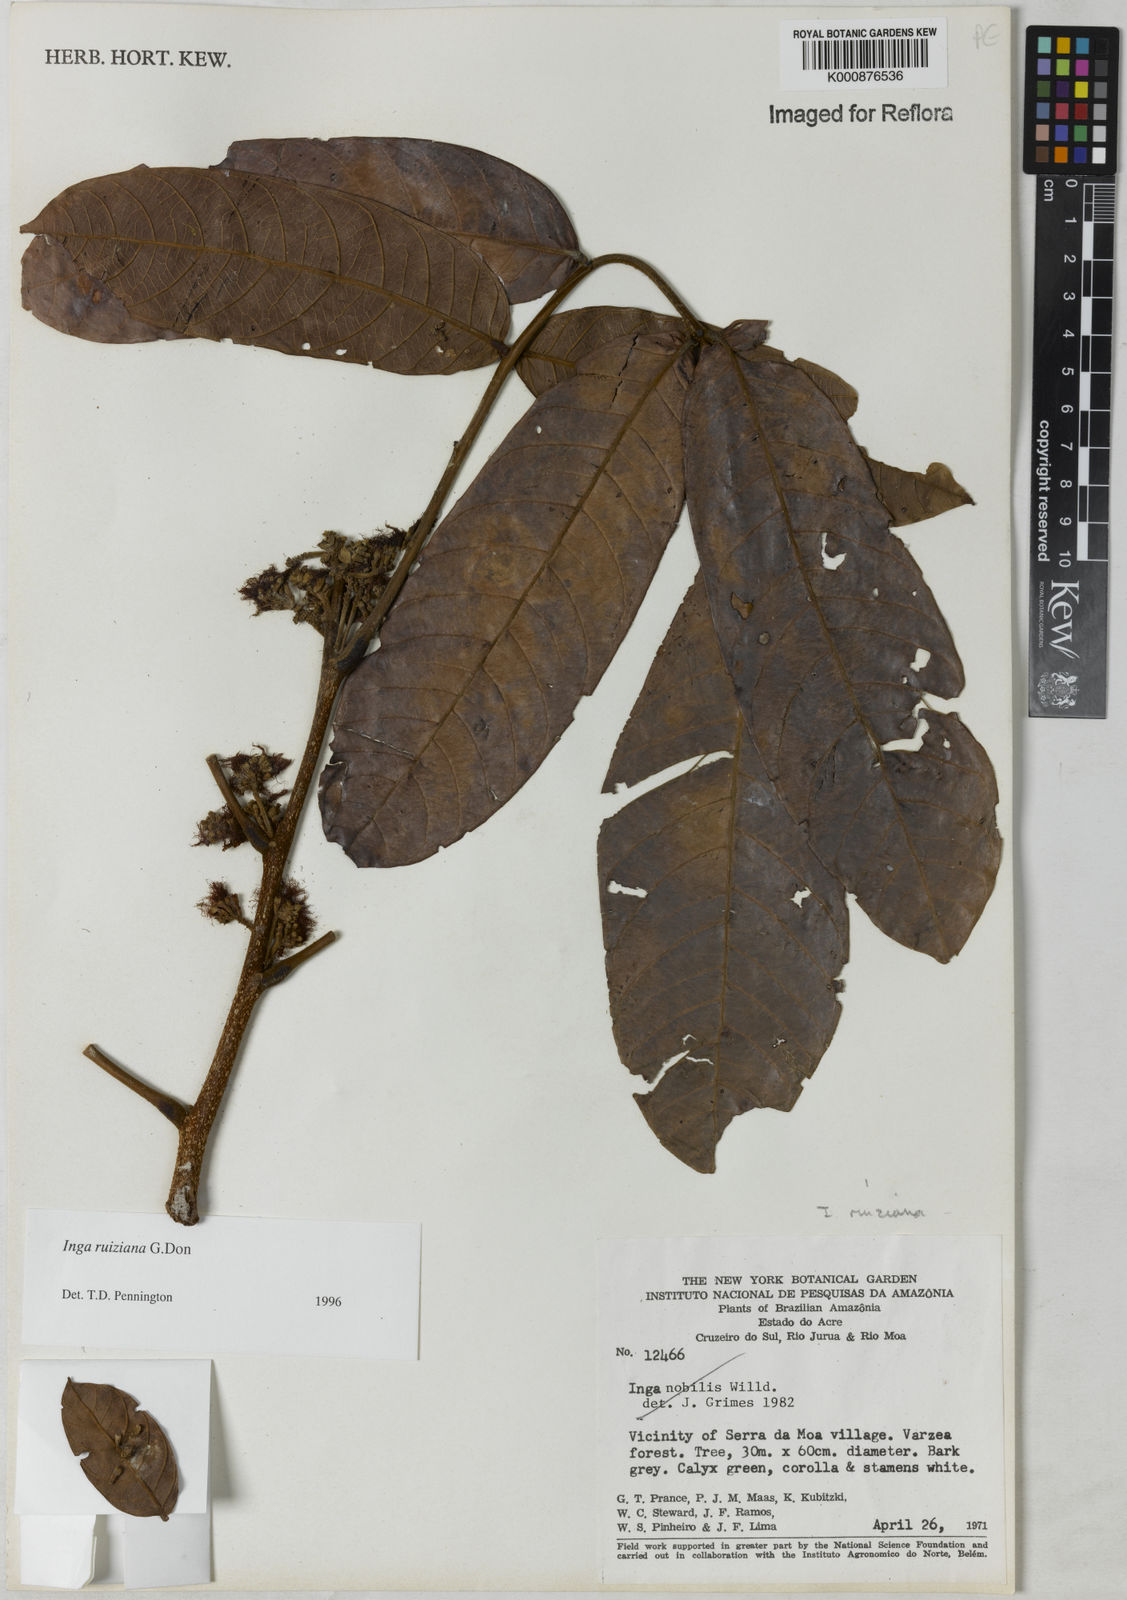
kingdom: Plantae
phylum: Tracheophyta
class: Magnoliopsida
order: Fabales
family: Fabaceae
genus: Inga
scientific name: Inga ruiziana
